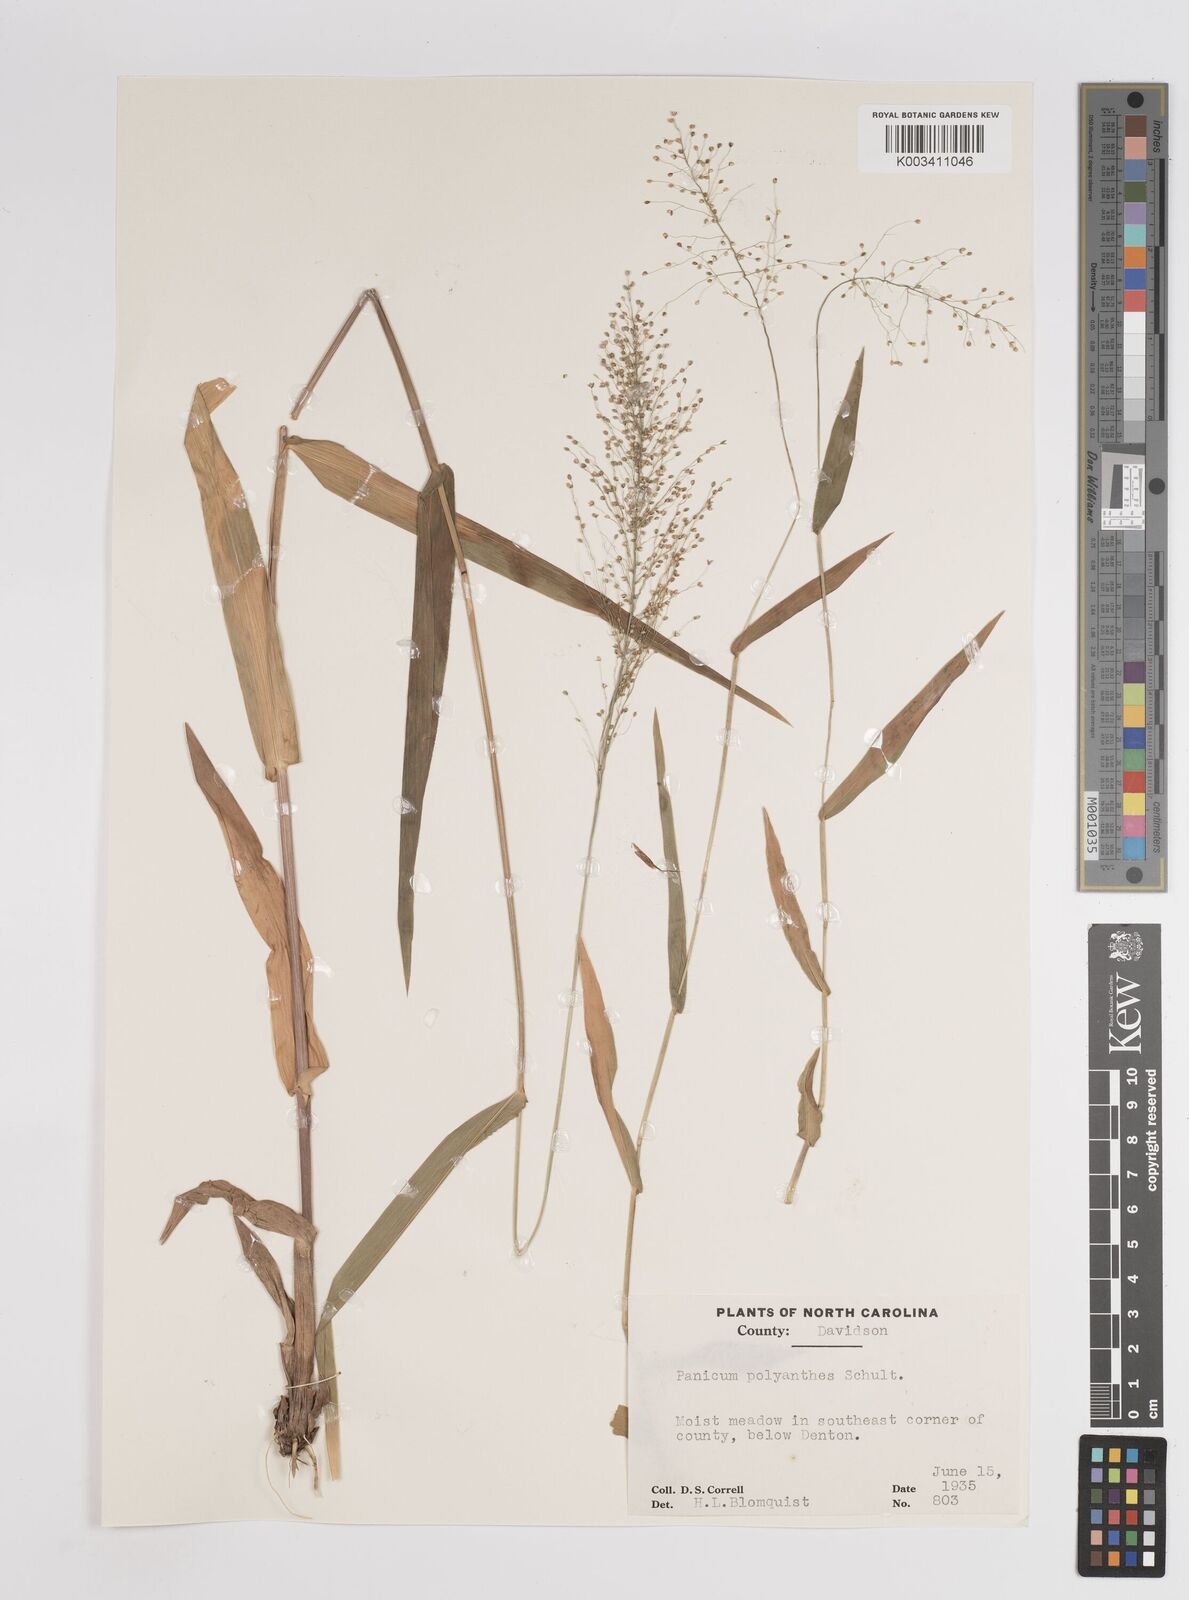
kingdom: Plantae
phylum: Tracheophyta
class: Liliopsida
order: Poales
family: Poaceae
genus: Dichanthelium
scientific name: Dichanthelium polyanthes
